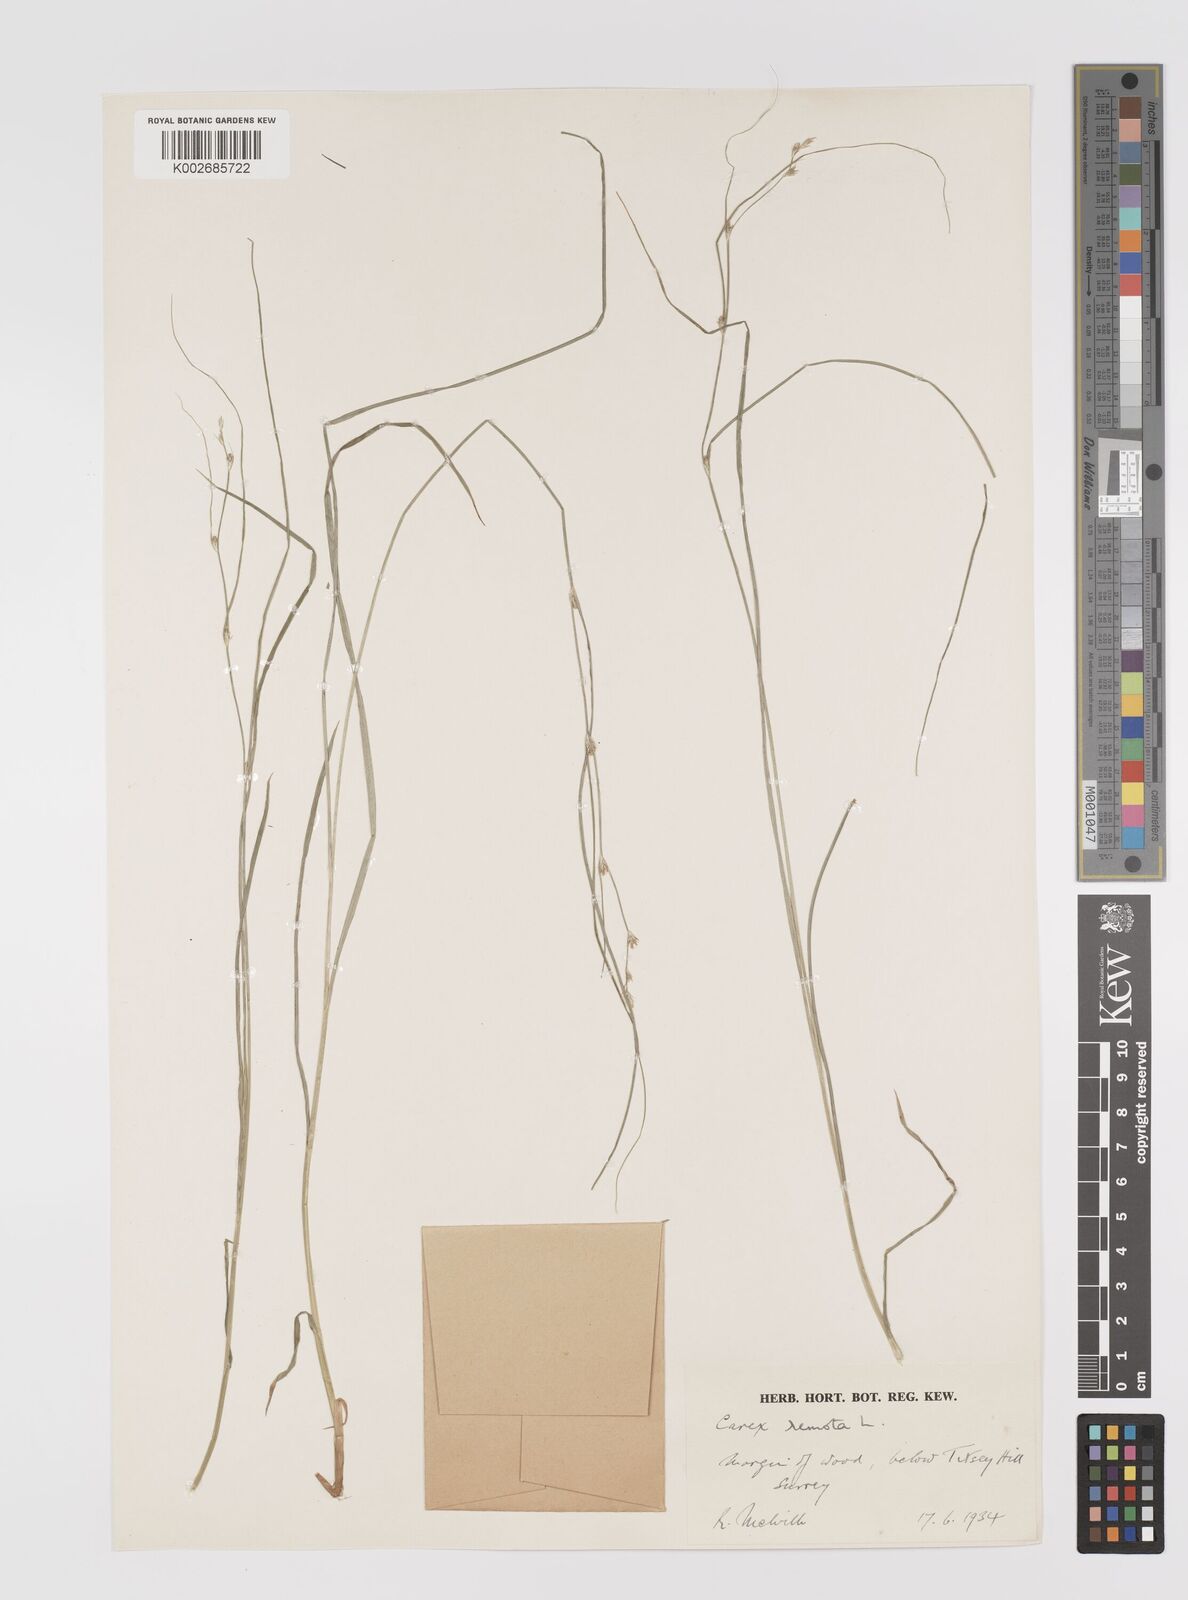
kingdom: Plantae
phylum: Tracheophyta
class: Liliopsida
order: Poales
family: Cyperaceae
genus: Carex
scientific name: Carex remota
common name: Remote sedge
